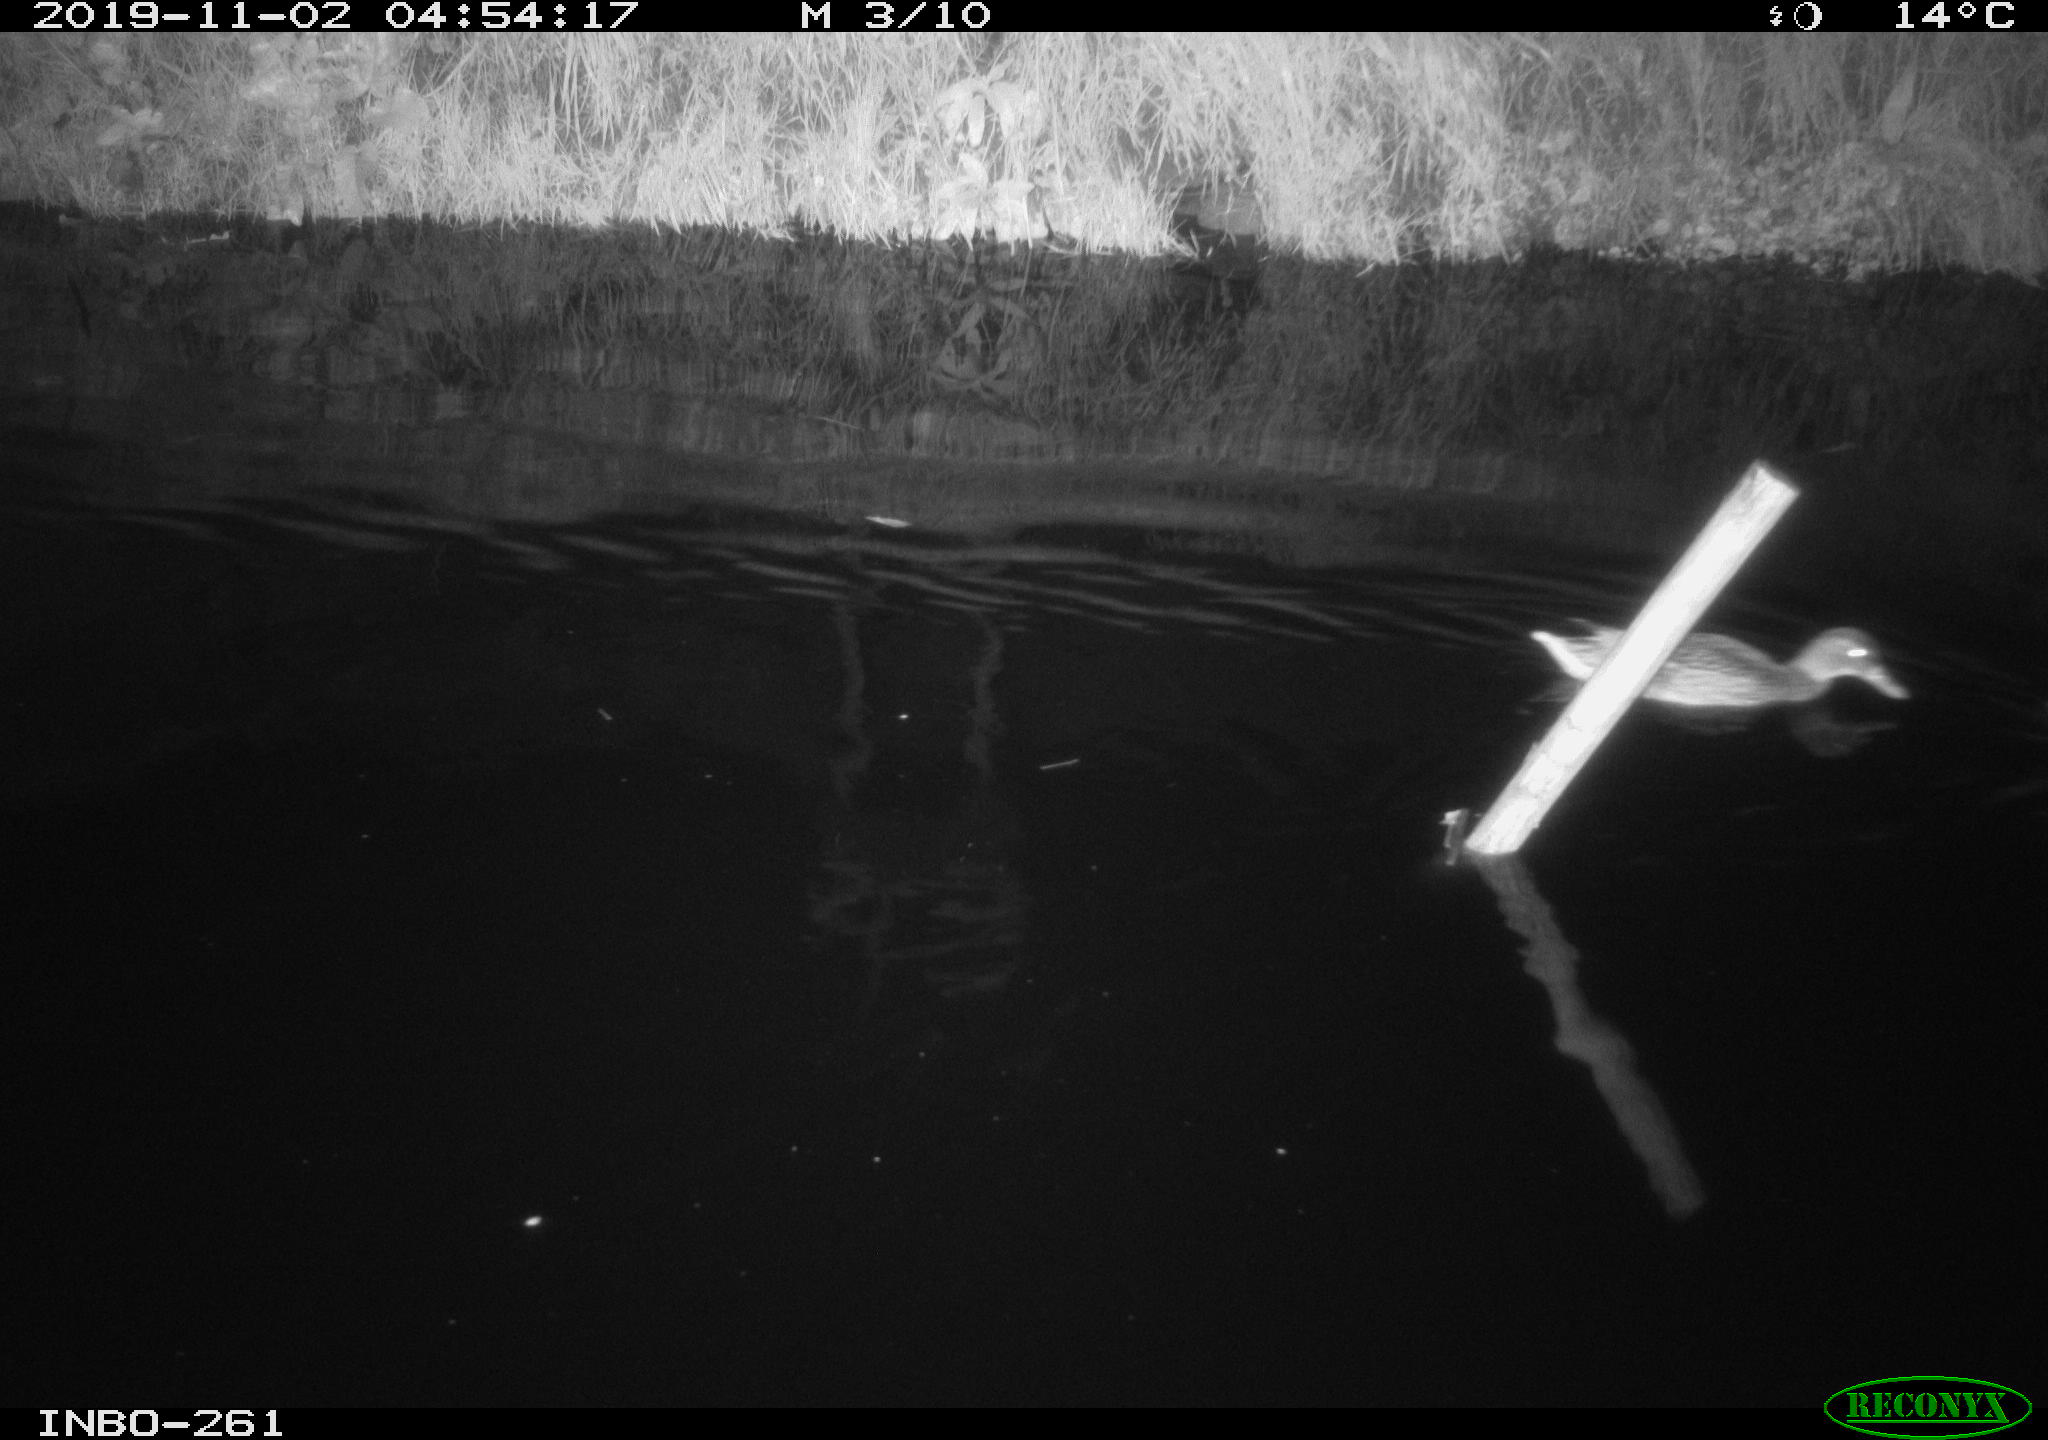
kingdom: Animalia
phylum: Chordata
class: Aves
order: Anseriformes
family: Anatidae
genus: Anas
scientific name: Anas platyrhynchos
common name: Mallard
